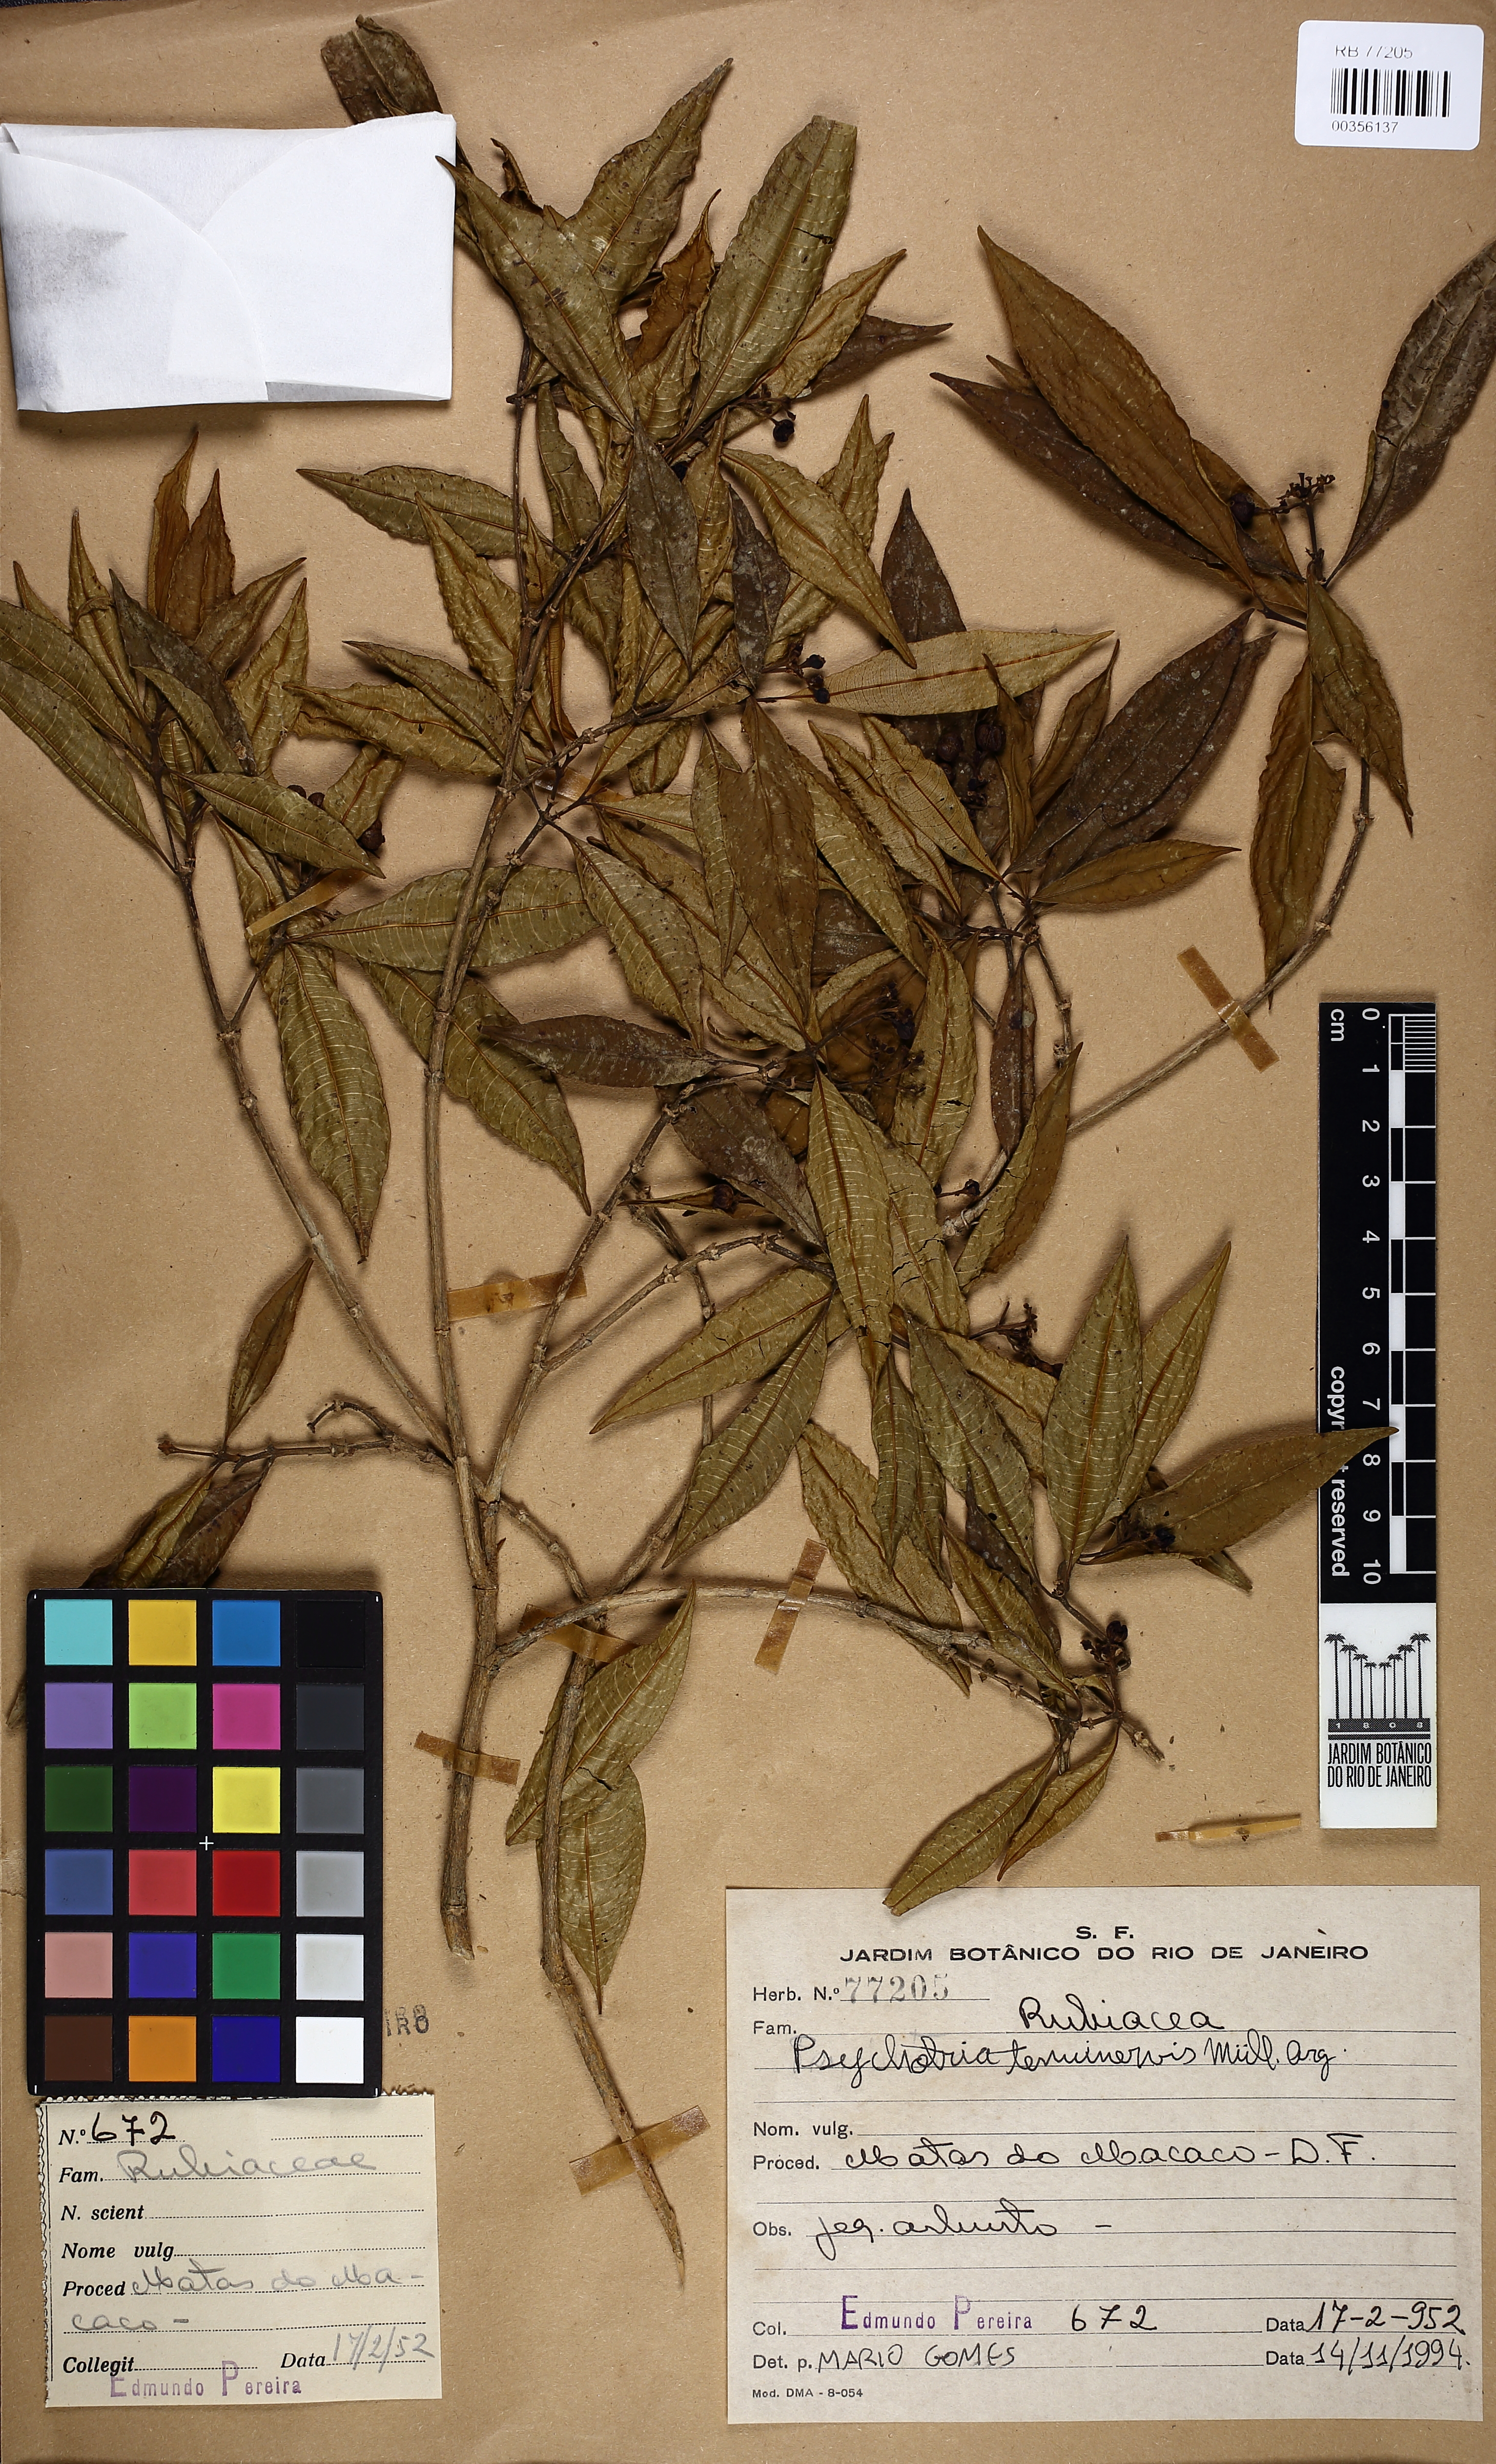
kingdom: Plantae
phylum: Tracheophyta
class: Magnoliopsida
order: Gentianales
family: Rubiaceae
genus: Psychotria
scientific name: Psychotria tenuinervis
